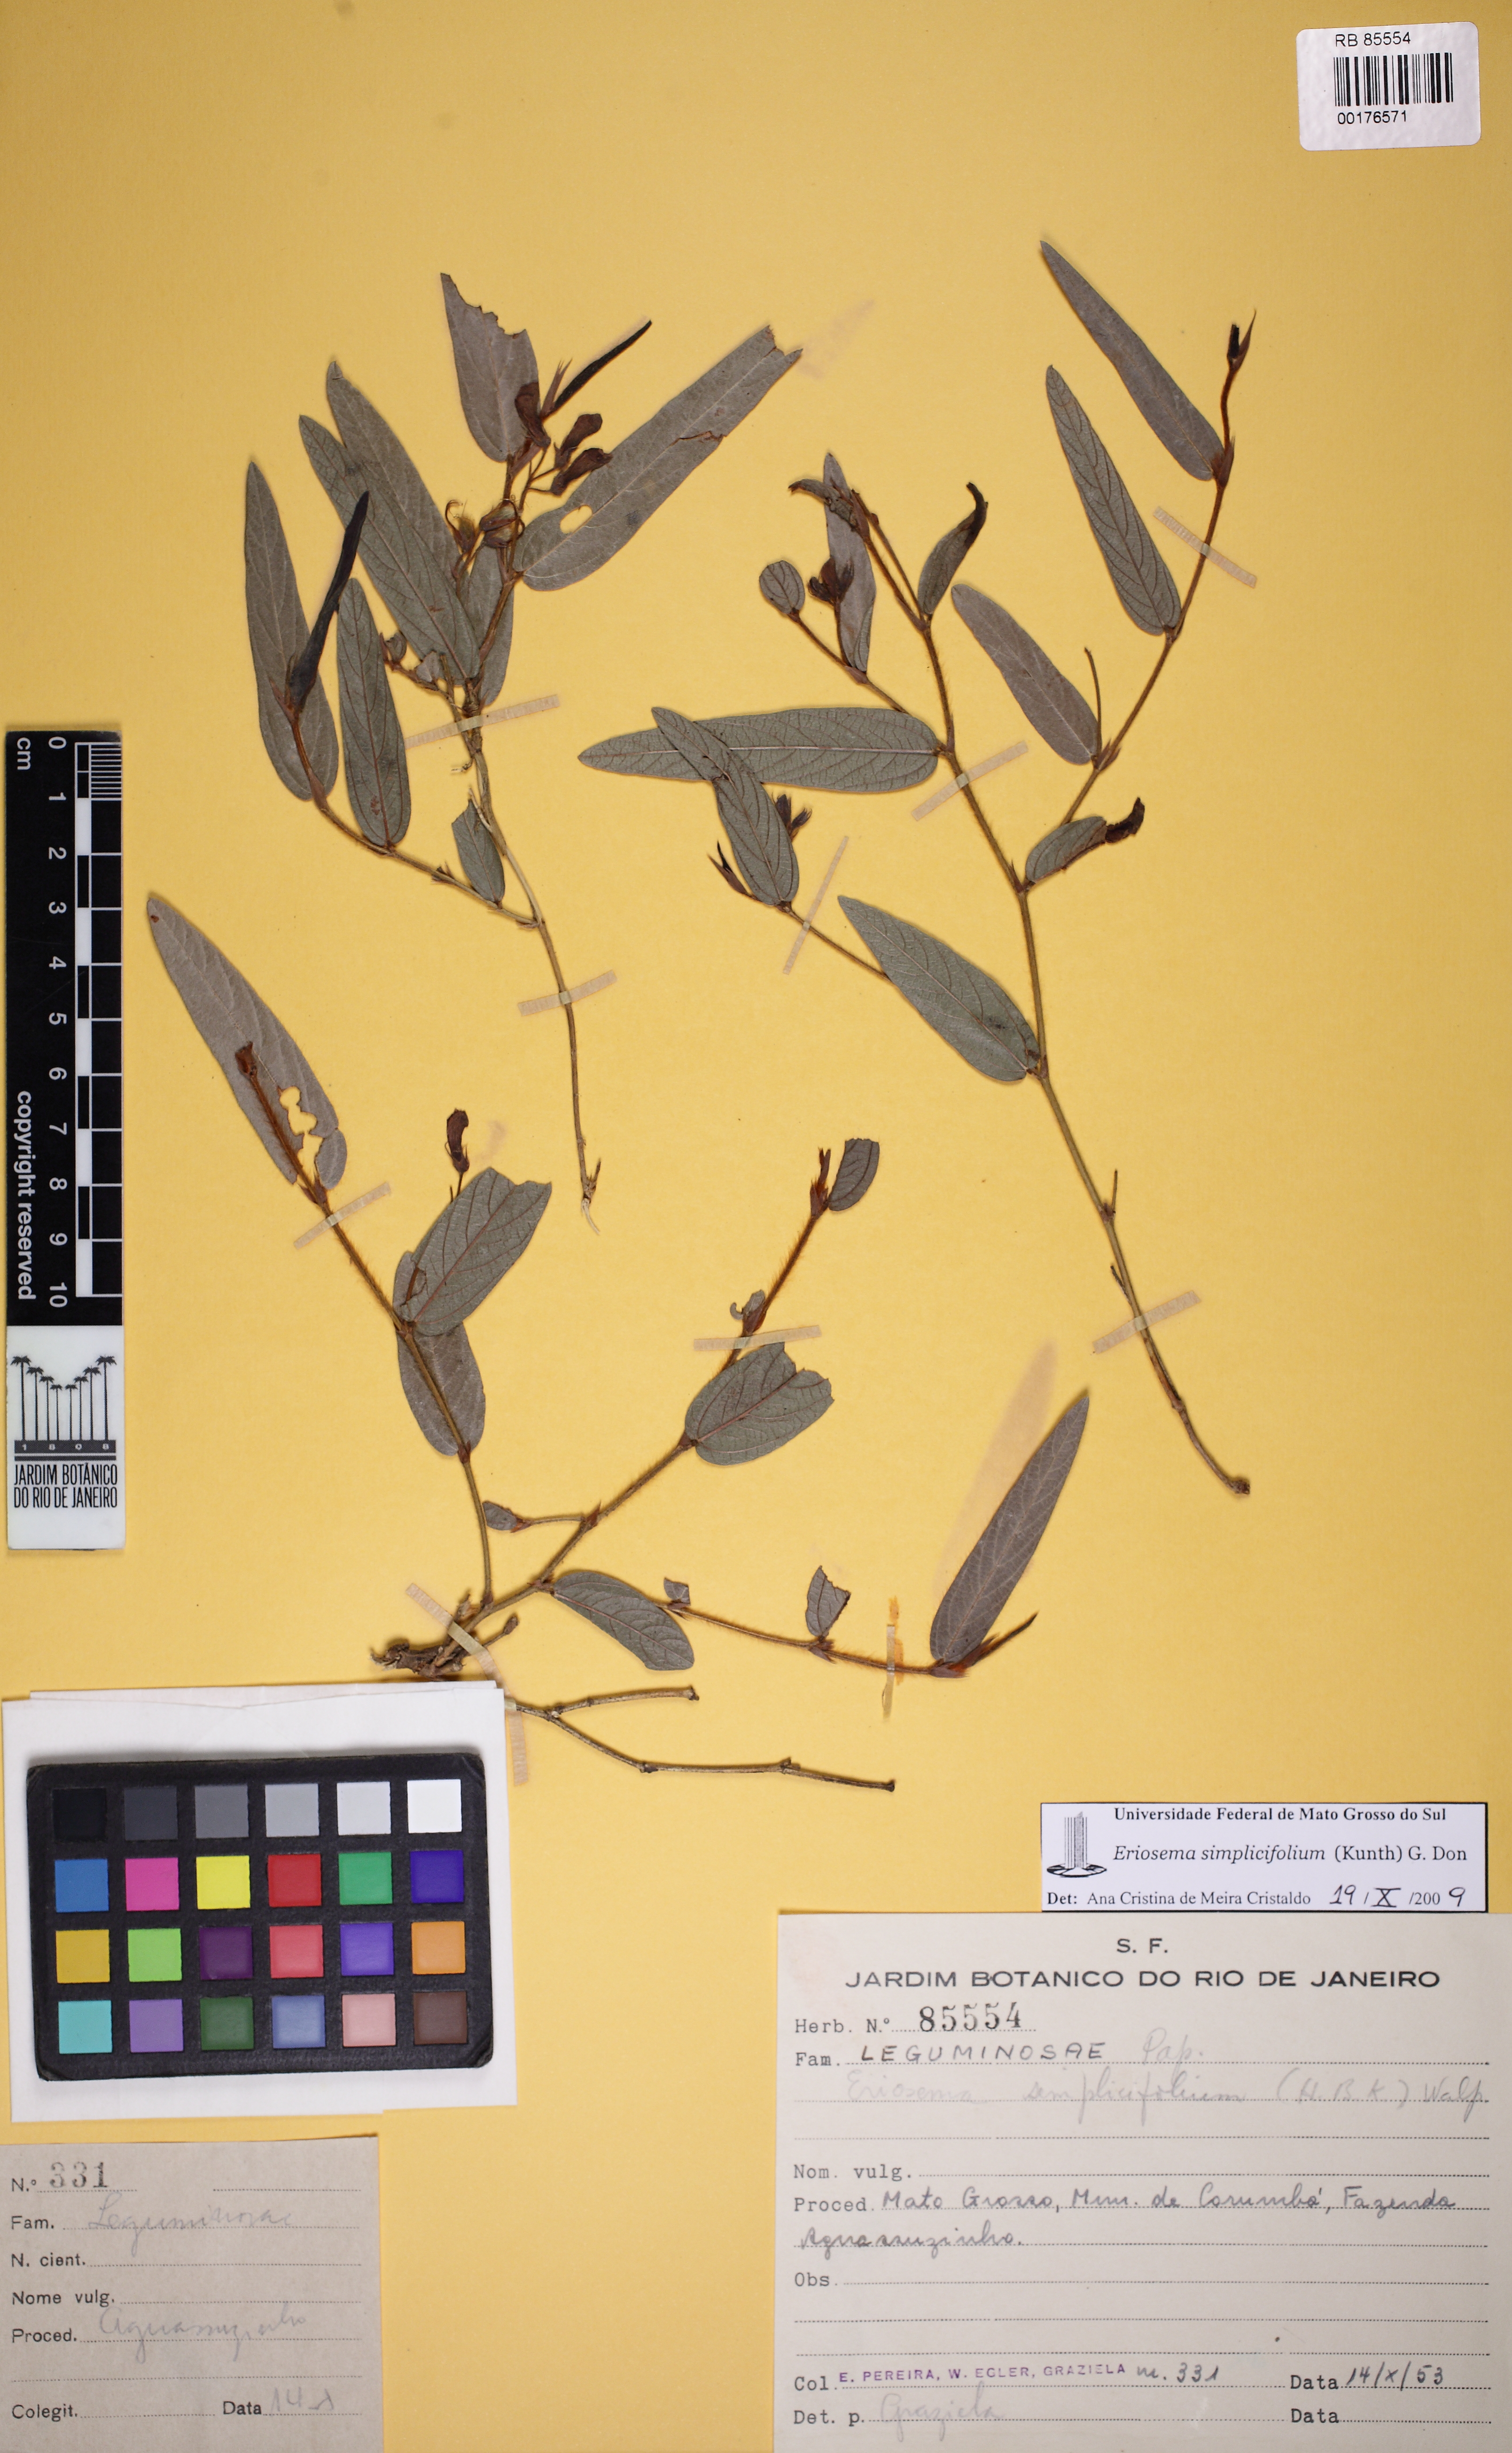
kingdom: Plantae
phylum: Tracheophyta
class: Magnoliopsida
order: Fabales
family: Fabaceae
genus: Eriosema
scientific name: Eriosema simplicifolium
